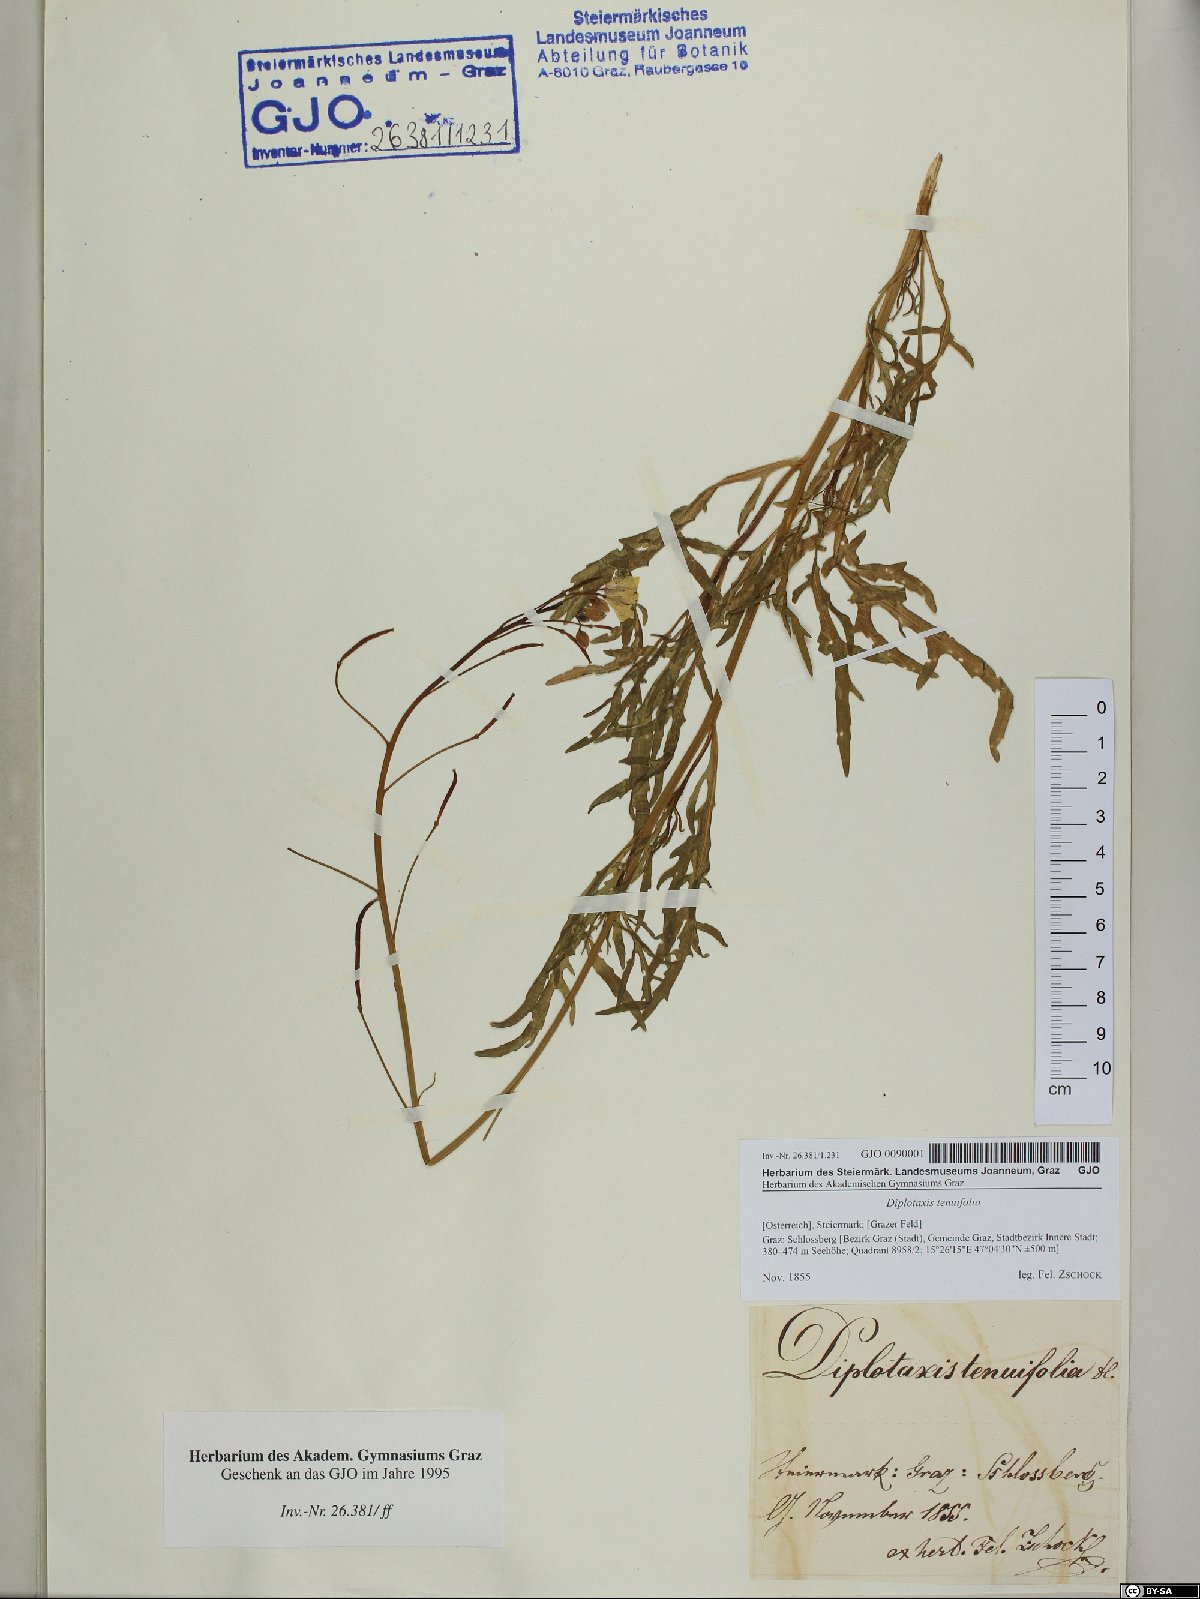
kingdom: Plantae
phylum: Tracheophyta
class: Magnoliopsida
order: Brassicales
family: Brassicaceae
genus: Diplotaxis
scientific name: Diplotaxis tenuifolia
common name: Perennial wall-rocket
